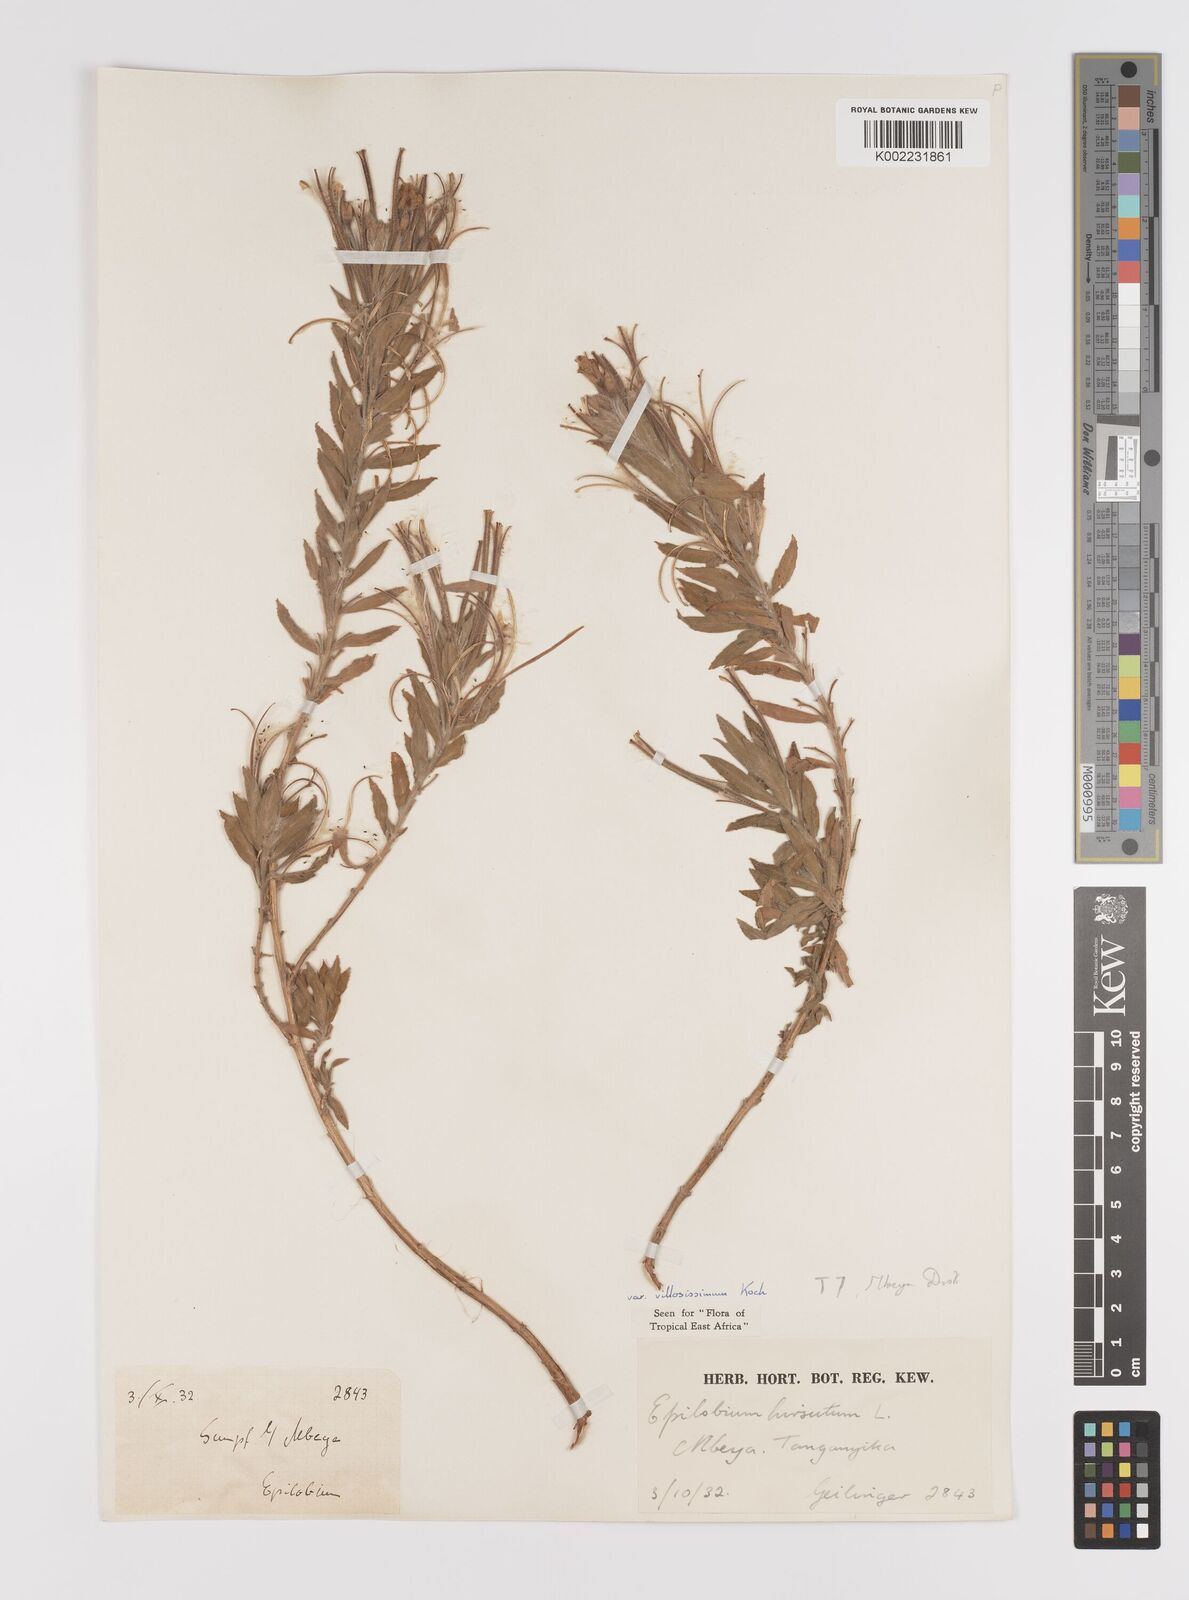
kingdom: Plantae
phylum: Tracheophyta
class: Magnoliopsida
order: Myrtales
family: Onagraceae
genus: Epilobium
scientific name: Epilobium hirsutum
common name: Great willowherb
